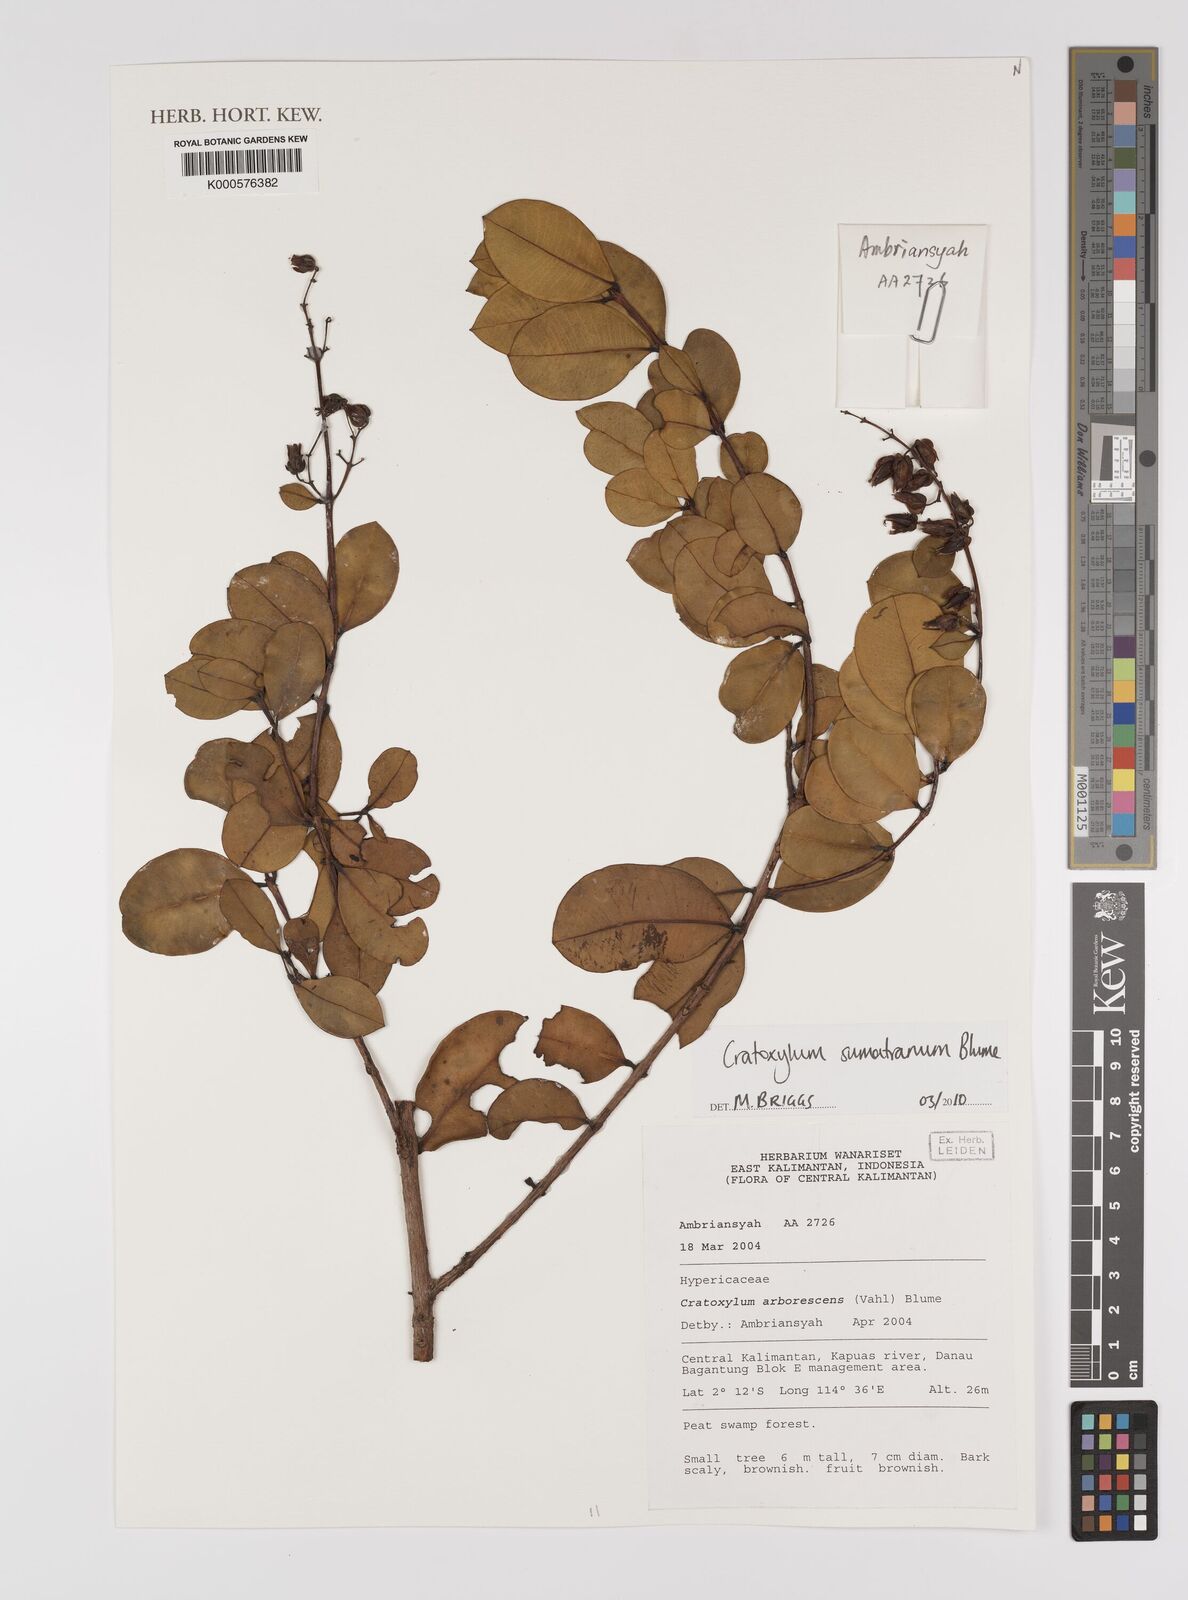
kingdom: Plantae
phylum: Tracheophyta
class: Magnoliopsida
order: Malpighiales
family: Hypericaceae
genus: Cratoxylum
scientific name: Cratoxylum sumatranum
